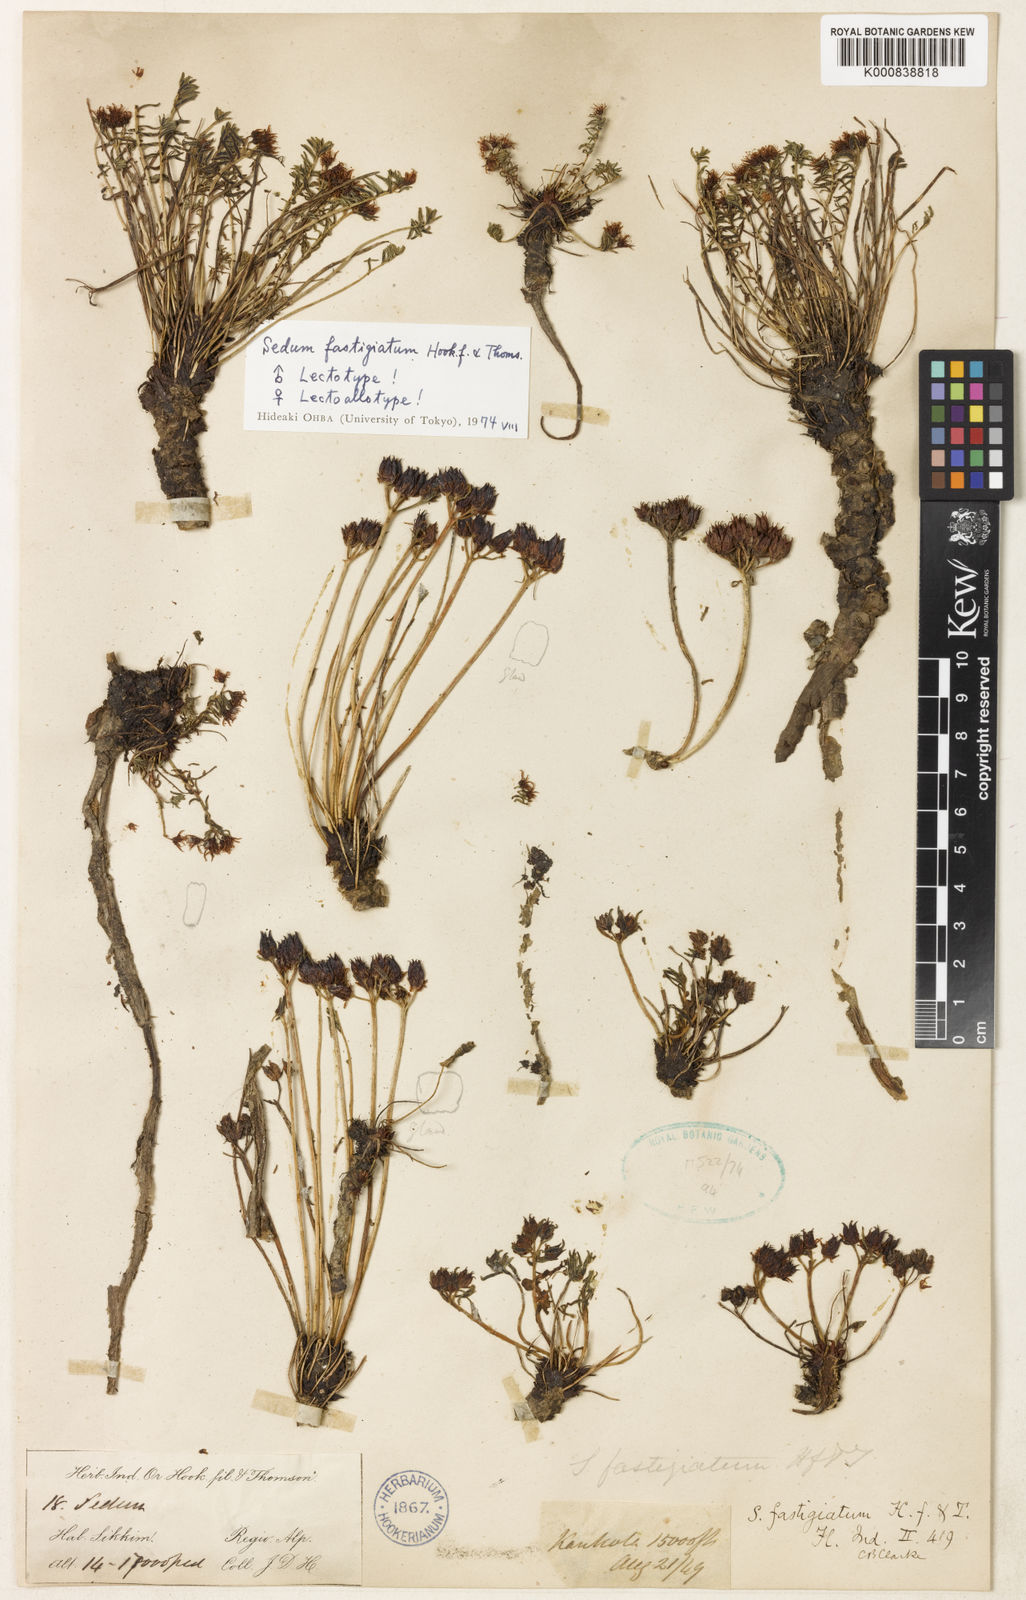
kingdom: Plantae
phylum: Tracheophyta
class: Magnoliopsida
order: Saxifragales
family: Crassulaceae
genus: Rhodiola
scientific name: Rhodiola fastigiata
